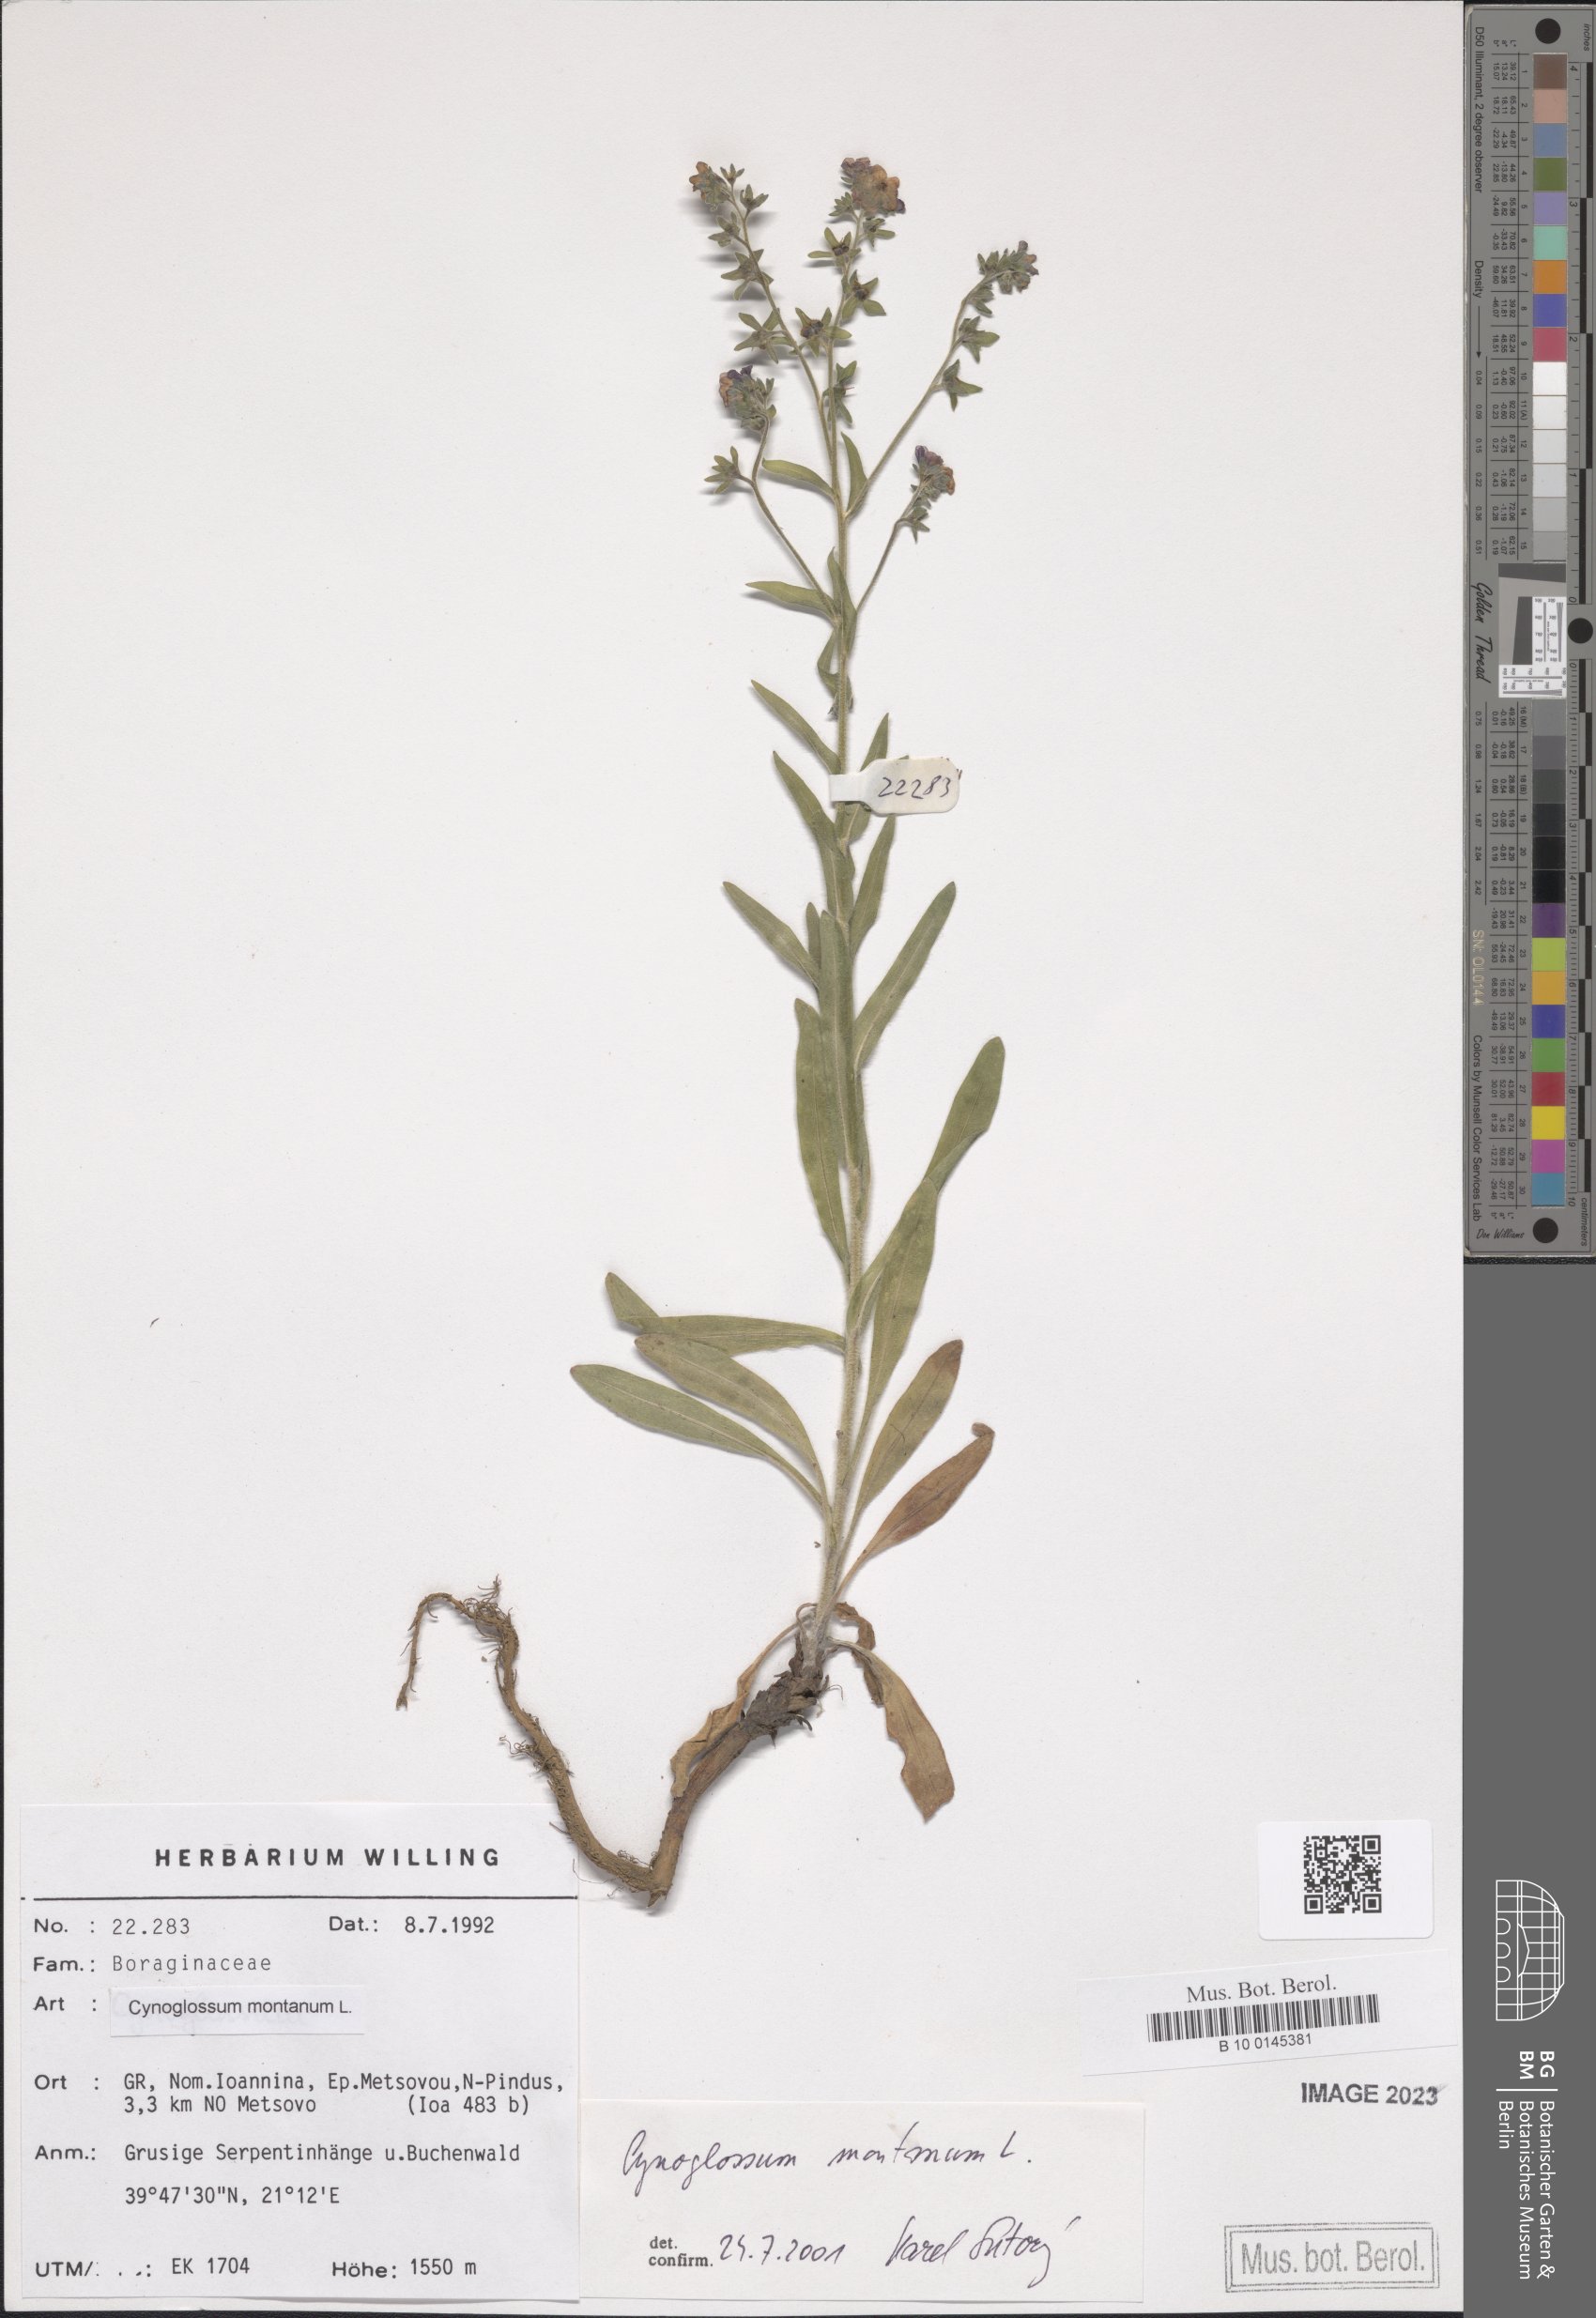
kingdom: Plantae
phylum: Tracheophyta
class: Magnoliopsida
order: Boraginales
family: Boraginaceae
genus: Cynoglossum
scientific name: Cynoglossum montanum
